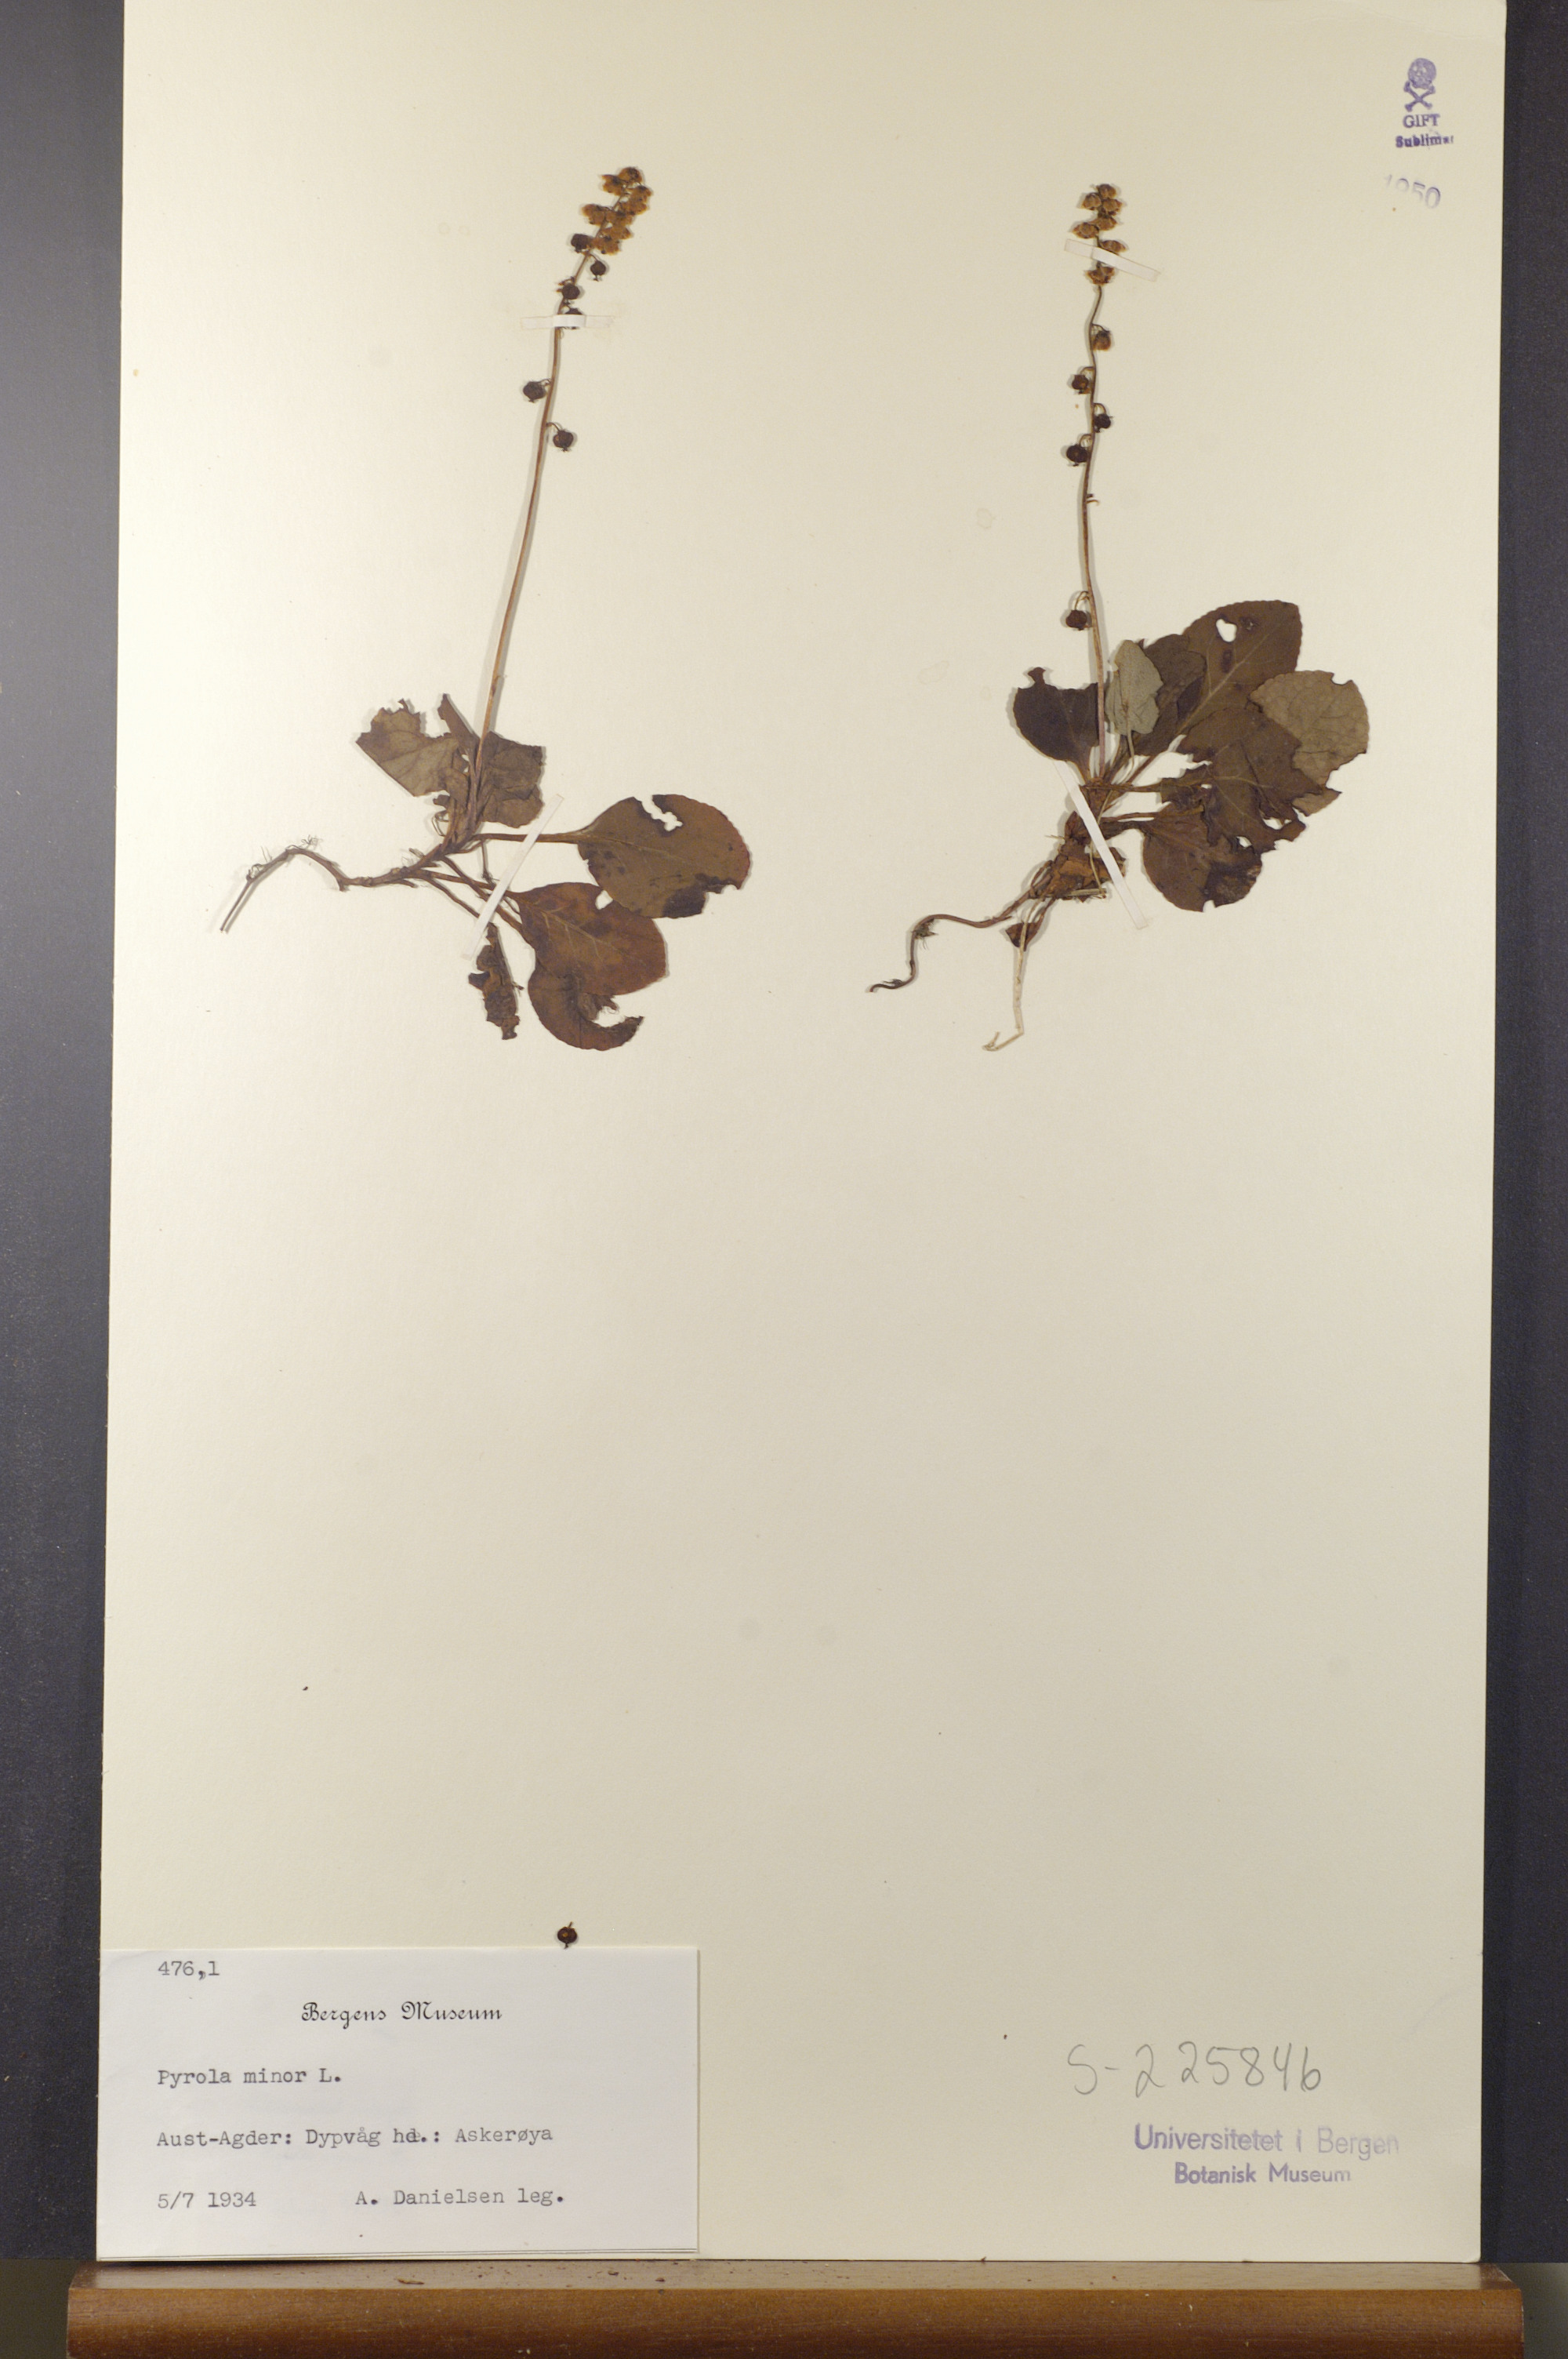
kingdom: Plantae
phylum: Tracheophyta
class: Magnoliopsida
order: Ericales
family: Ericaceae
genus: Pyrola
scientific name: Pyrola minor
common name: Common wintergreen
